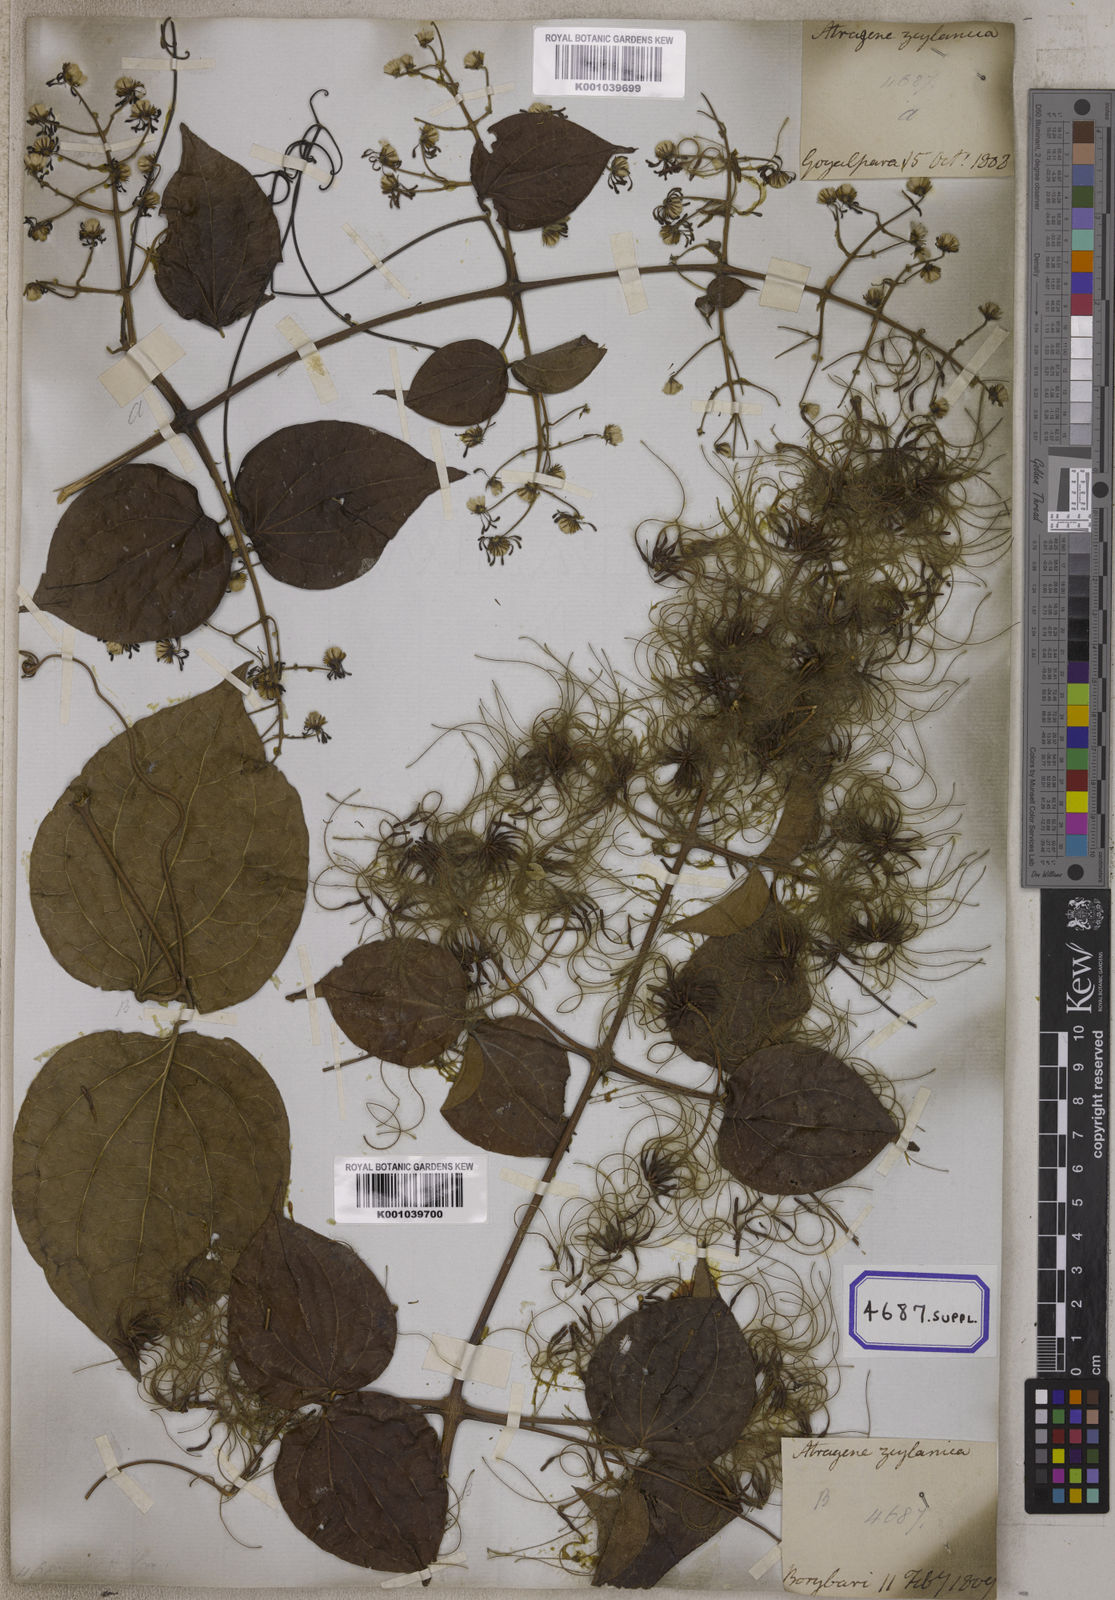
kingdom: Plantae
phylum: Tracheophyta
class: Magnoliopsida
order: Ranunculales
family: Ranunculaceae
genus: Clematis
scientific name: Clematis zeylanica
